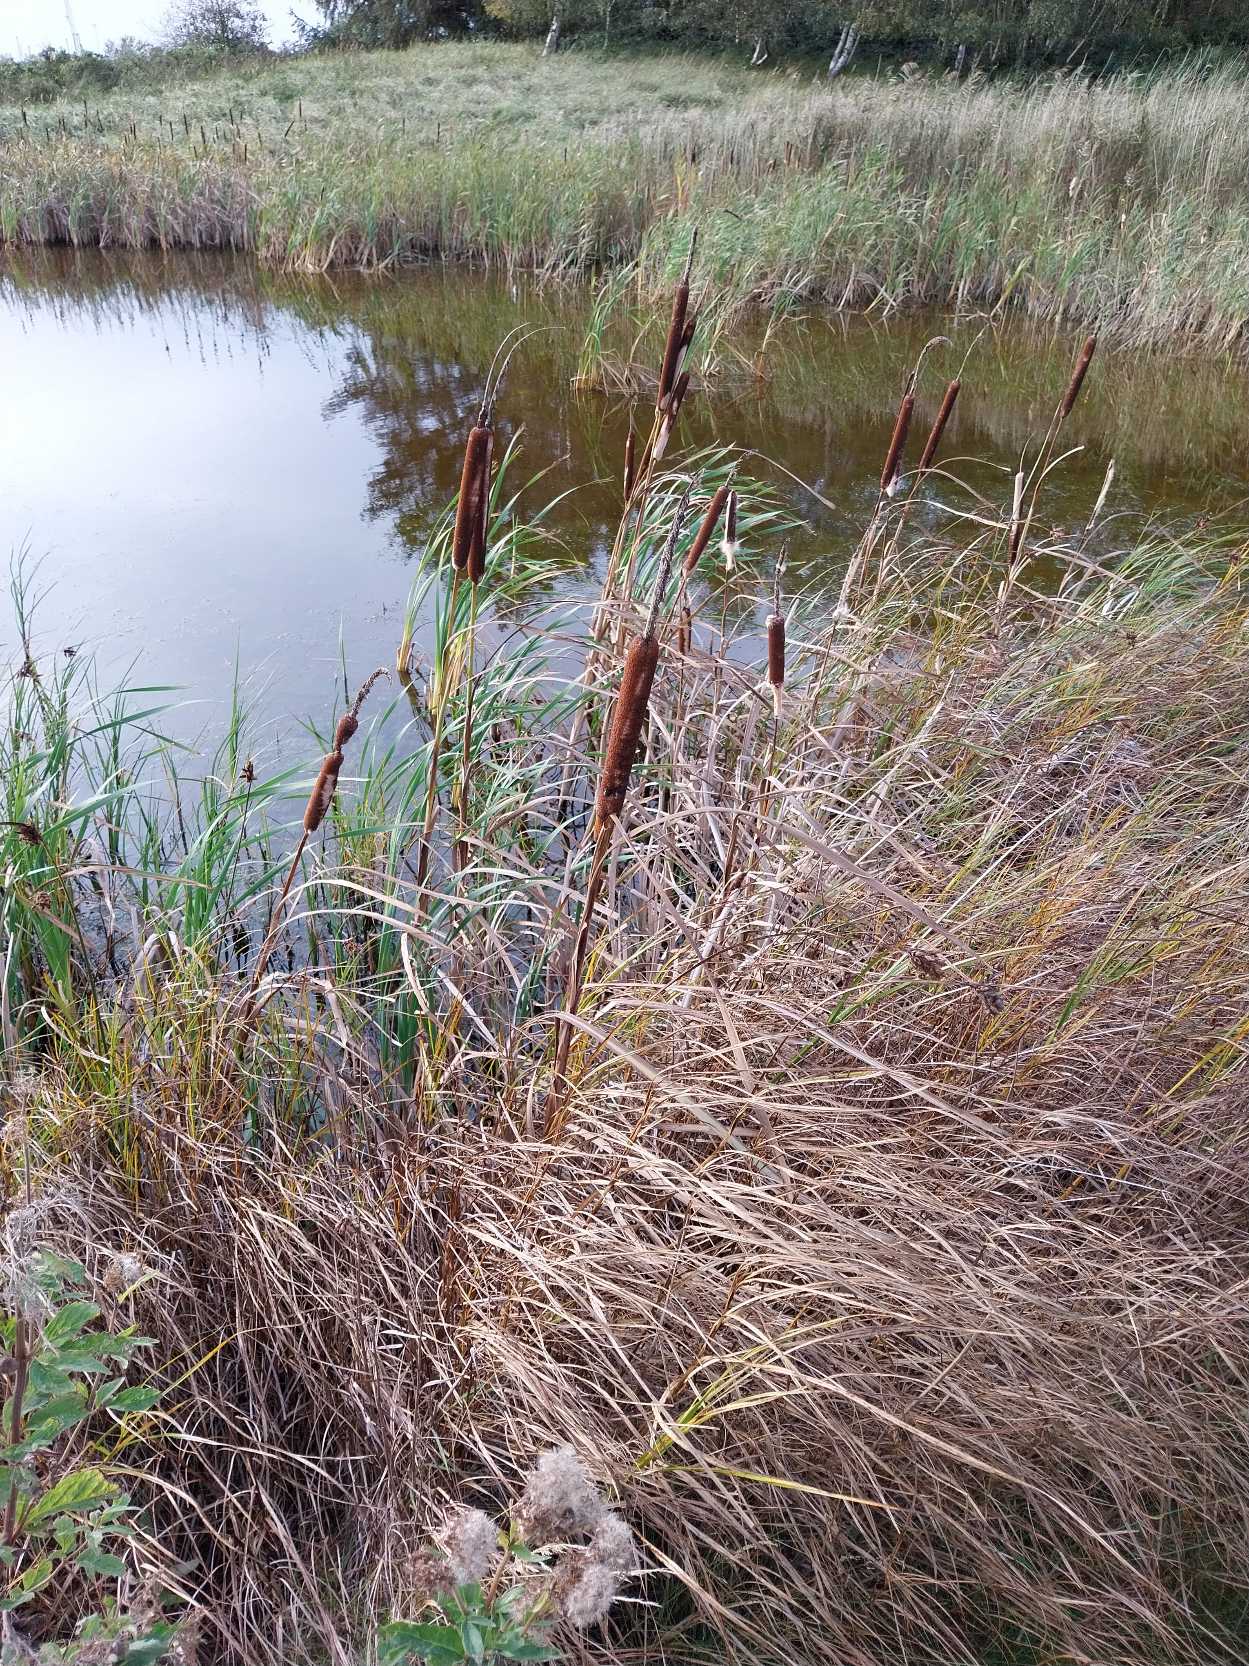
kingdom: Plantae
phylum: Tracheophyta
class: Liliopsida
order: Poales
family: Typhaceae
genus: Typha
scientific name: Typha latifolia
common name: Bredbladet dunhammer
